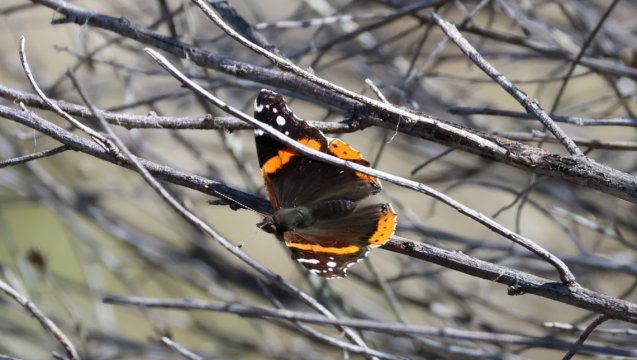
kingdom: Animalia
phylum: Arthropoda
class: Insecta
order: Lepidoptera
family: Nymphalidae
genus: Vanessa
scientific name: Vanessa atalanta
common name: Red Admiral
